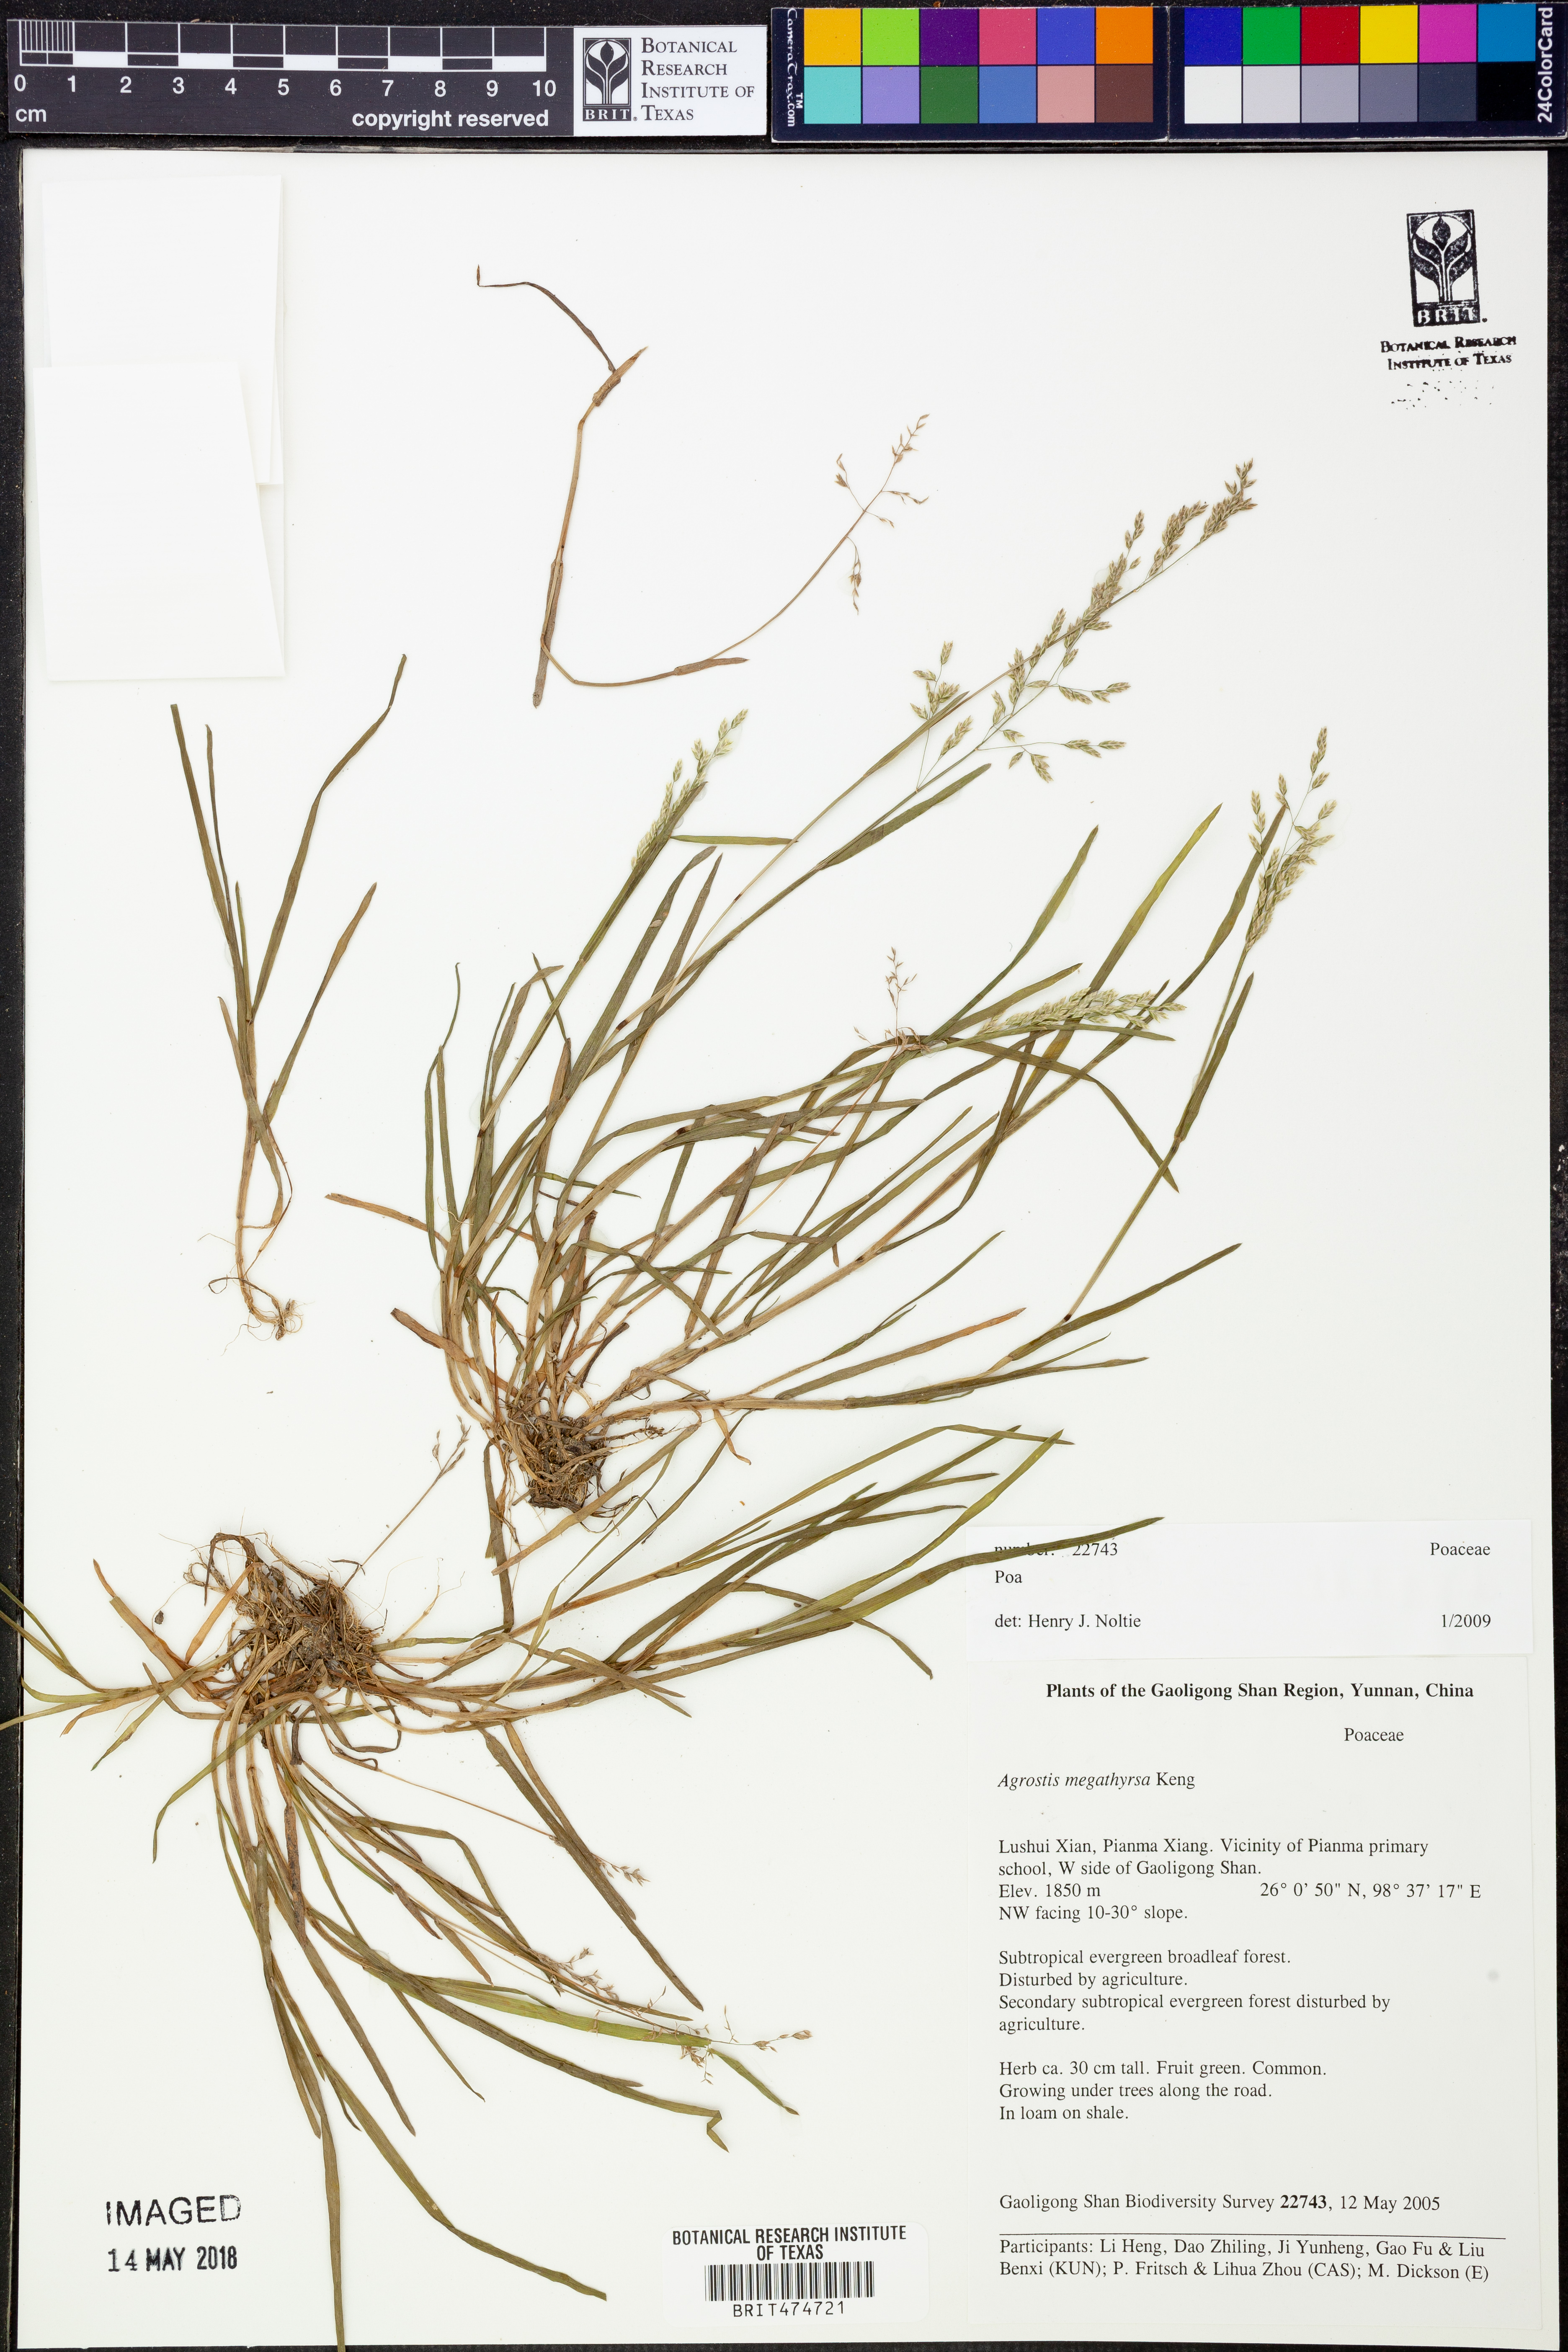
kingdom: Plantae
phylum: Tracheophyta
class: Liliopsida
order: Poales
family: Poaceae
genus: Poa
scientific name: Poa
